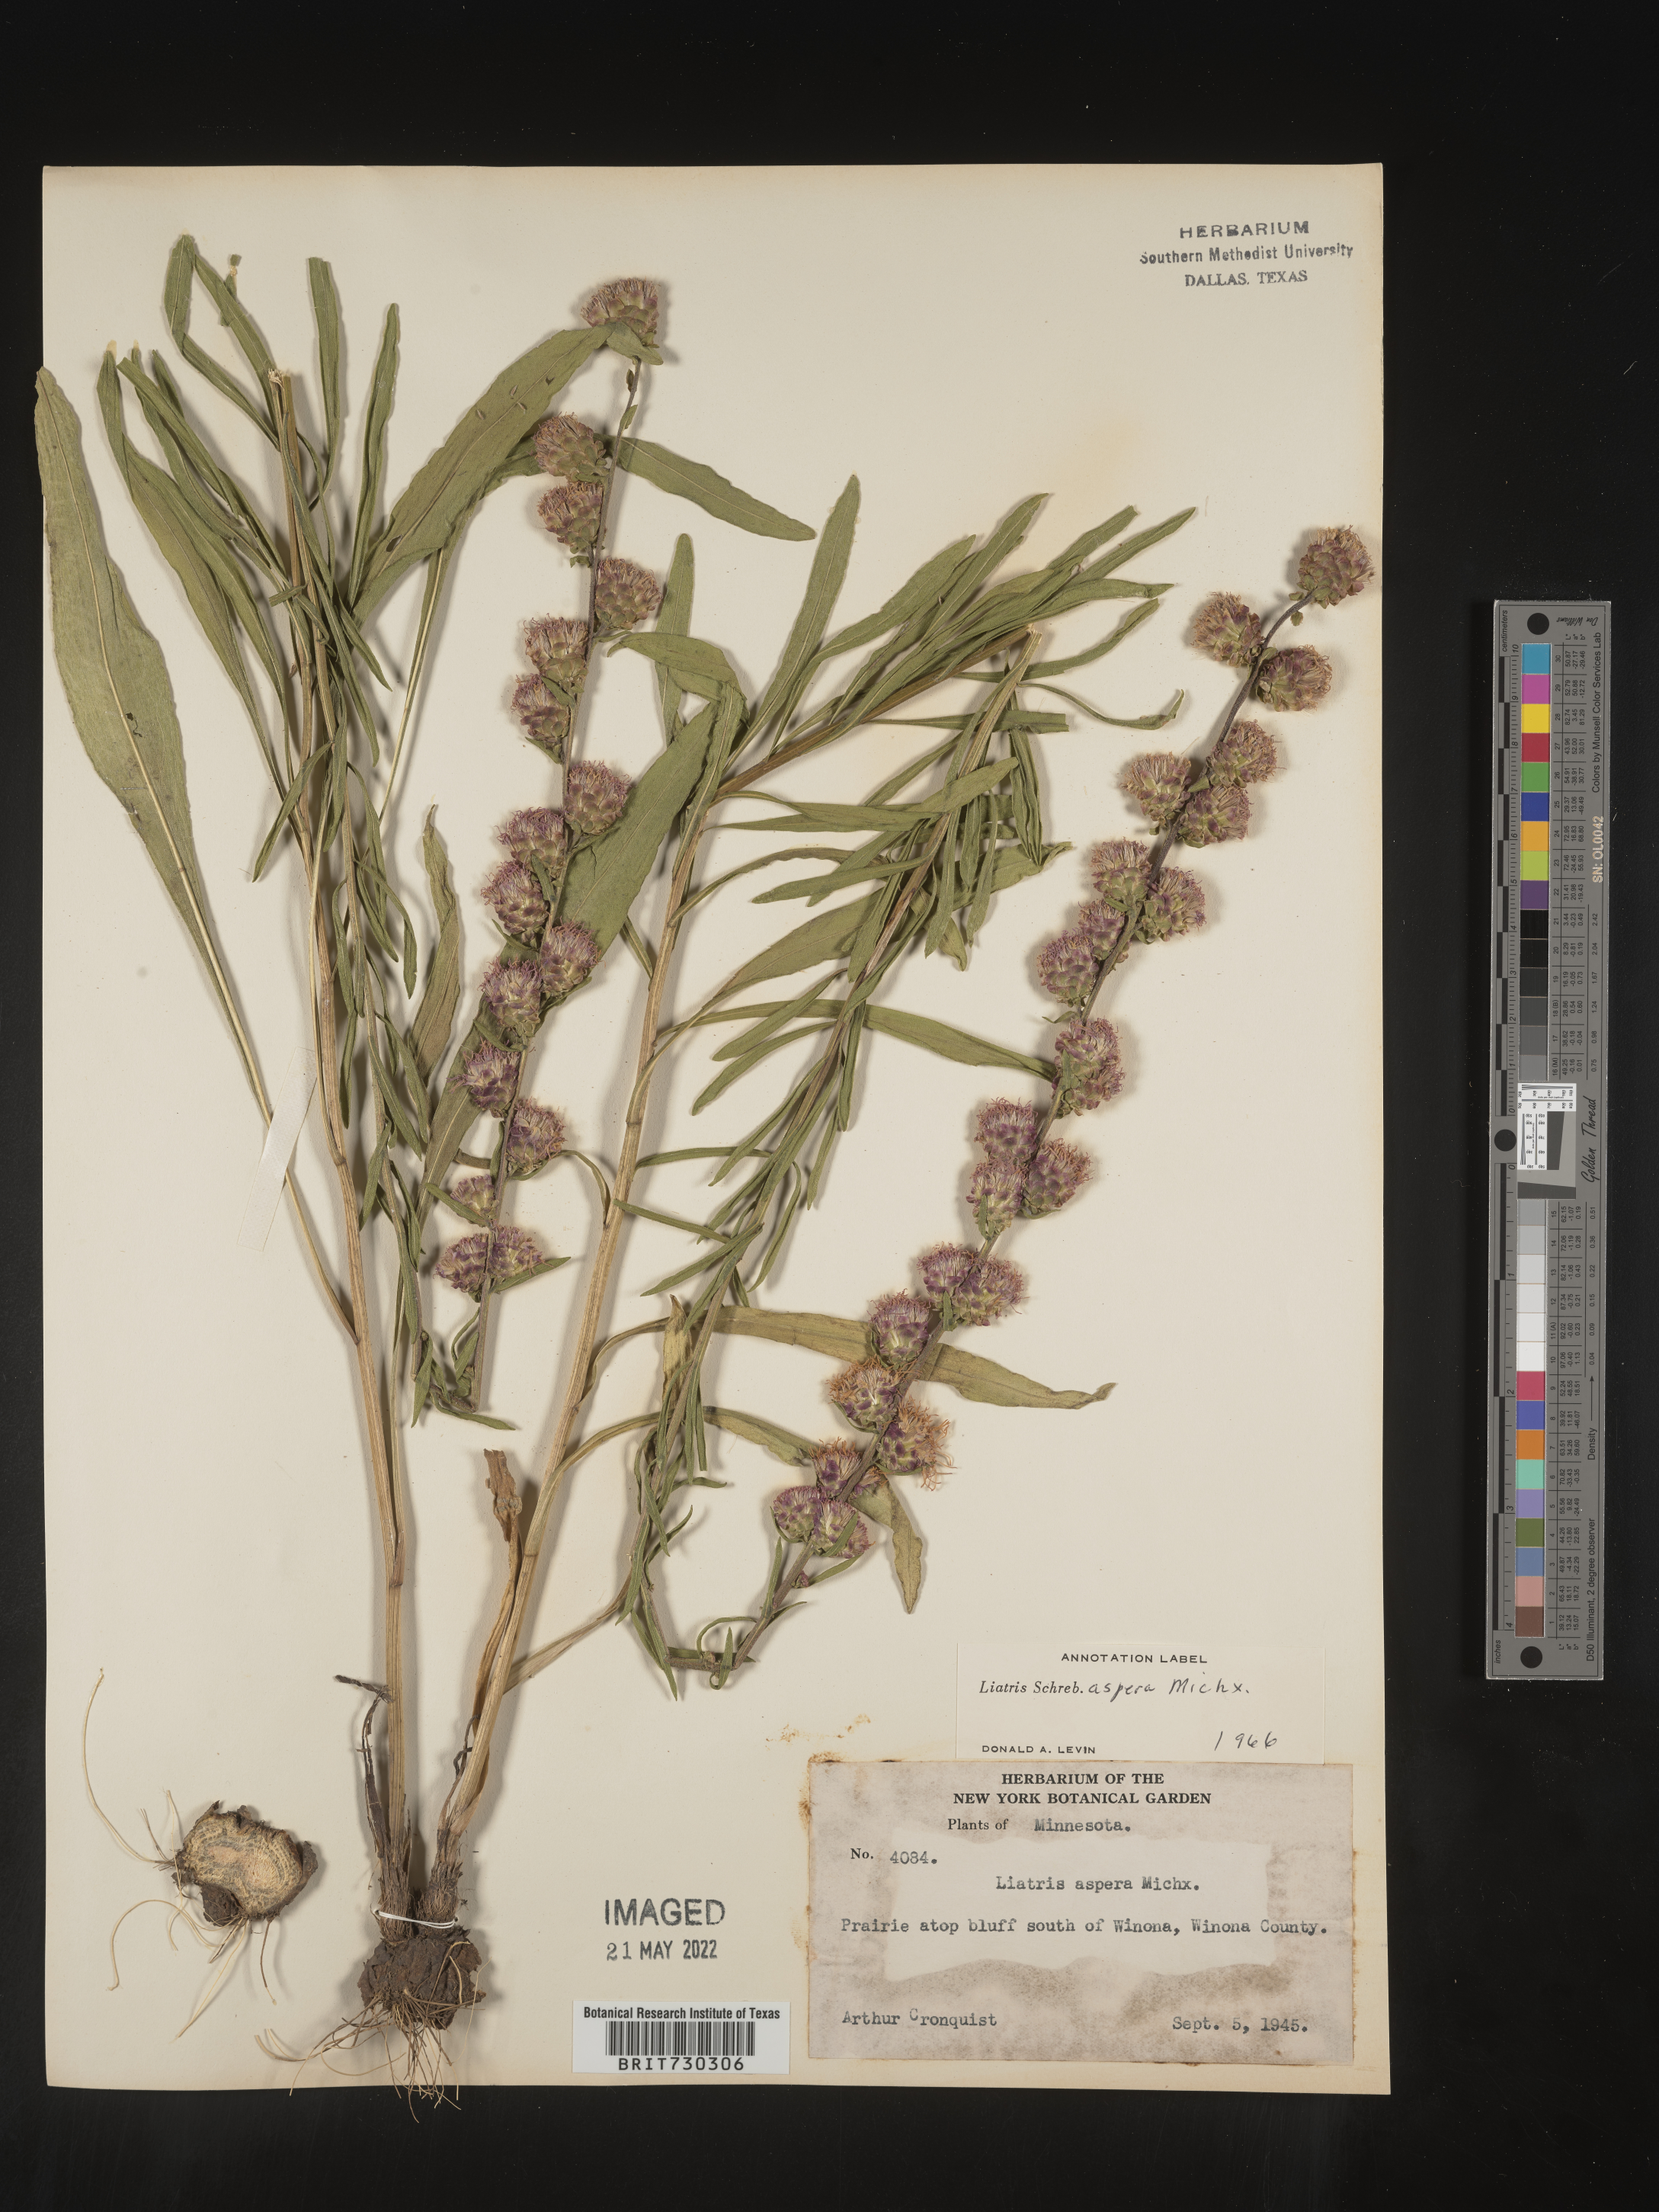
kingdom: Plantae
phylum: Tracheophyta
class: Magnoliopsida
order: Asterales
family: Asteraceae
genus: Liatris
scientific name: Liatris aspera
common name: Lacerate blazing-star
